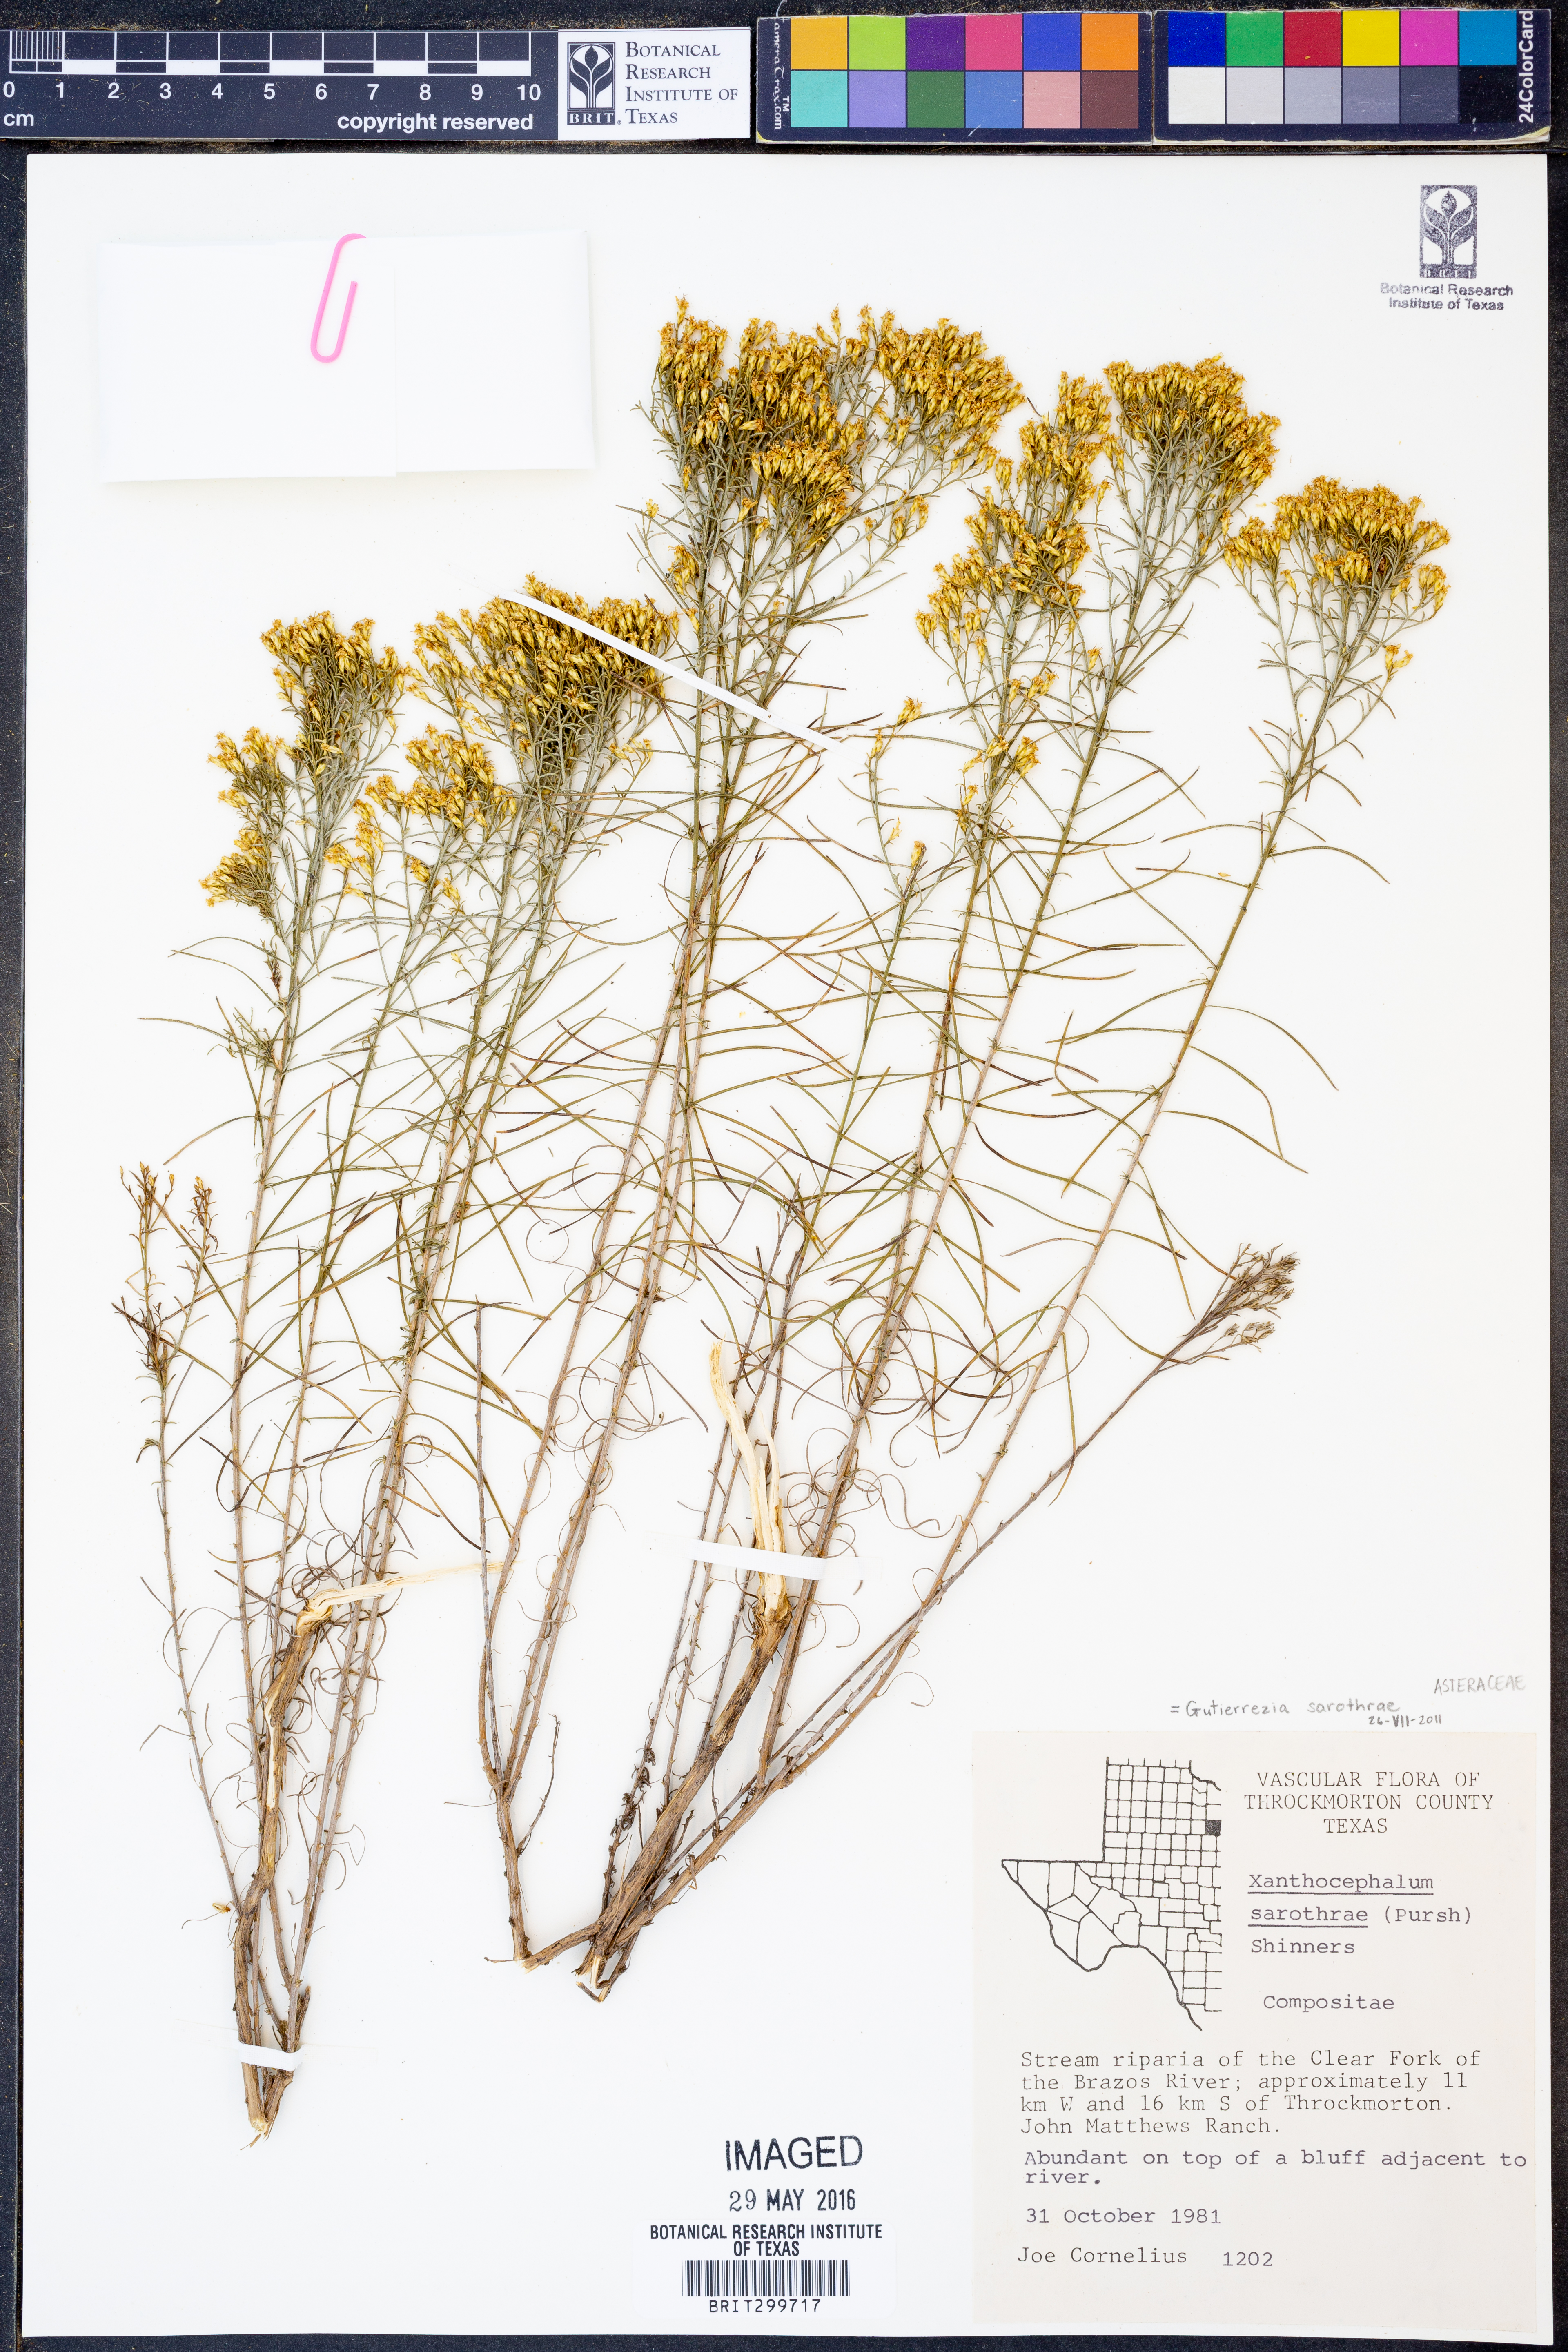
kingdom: Plantae
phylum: Tracheophyta
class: Magnoliopsida
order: Asterales
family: Asteraceae
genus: Gutierrezia
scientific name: Gutierrezia sarothrae
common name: Broom snakeweed
